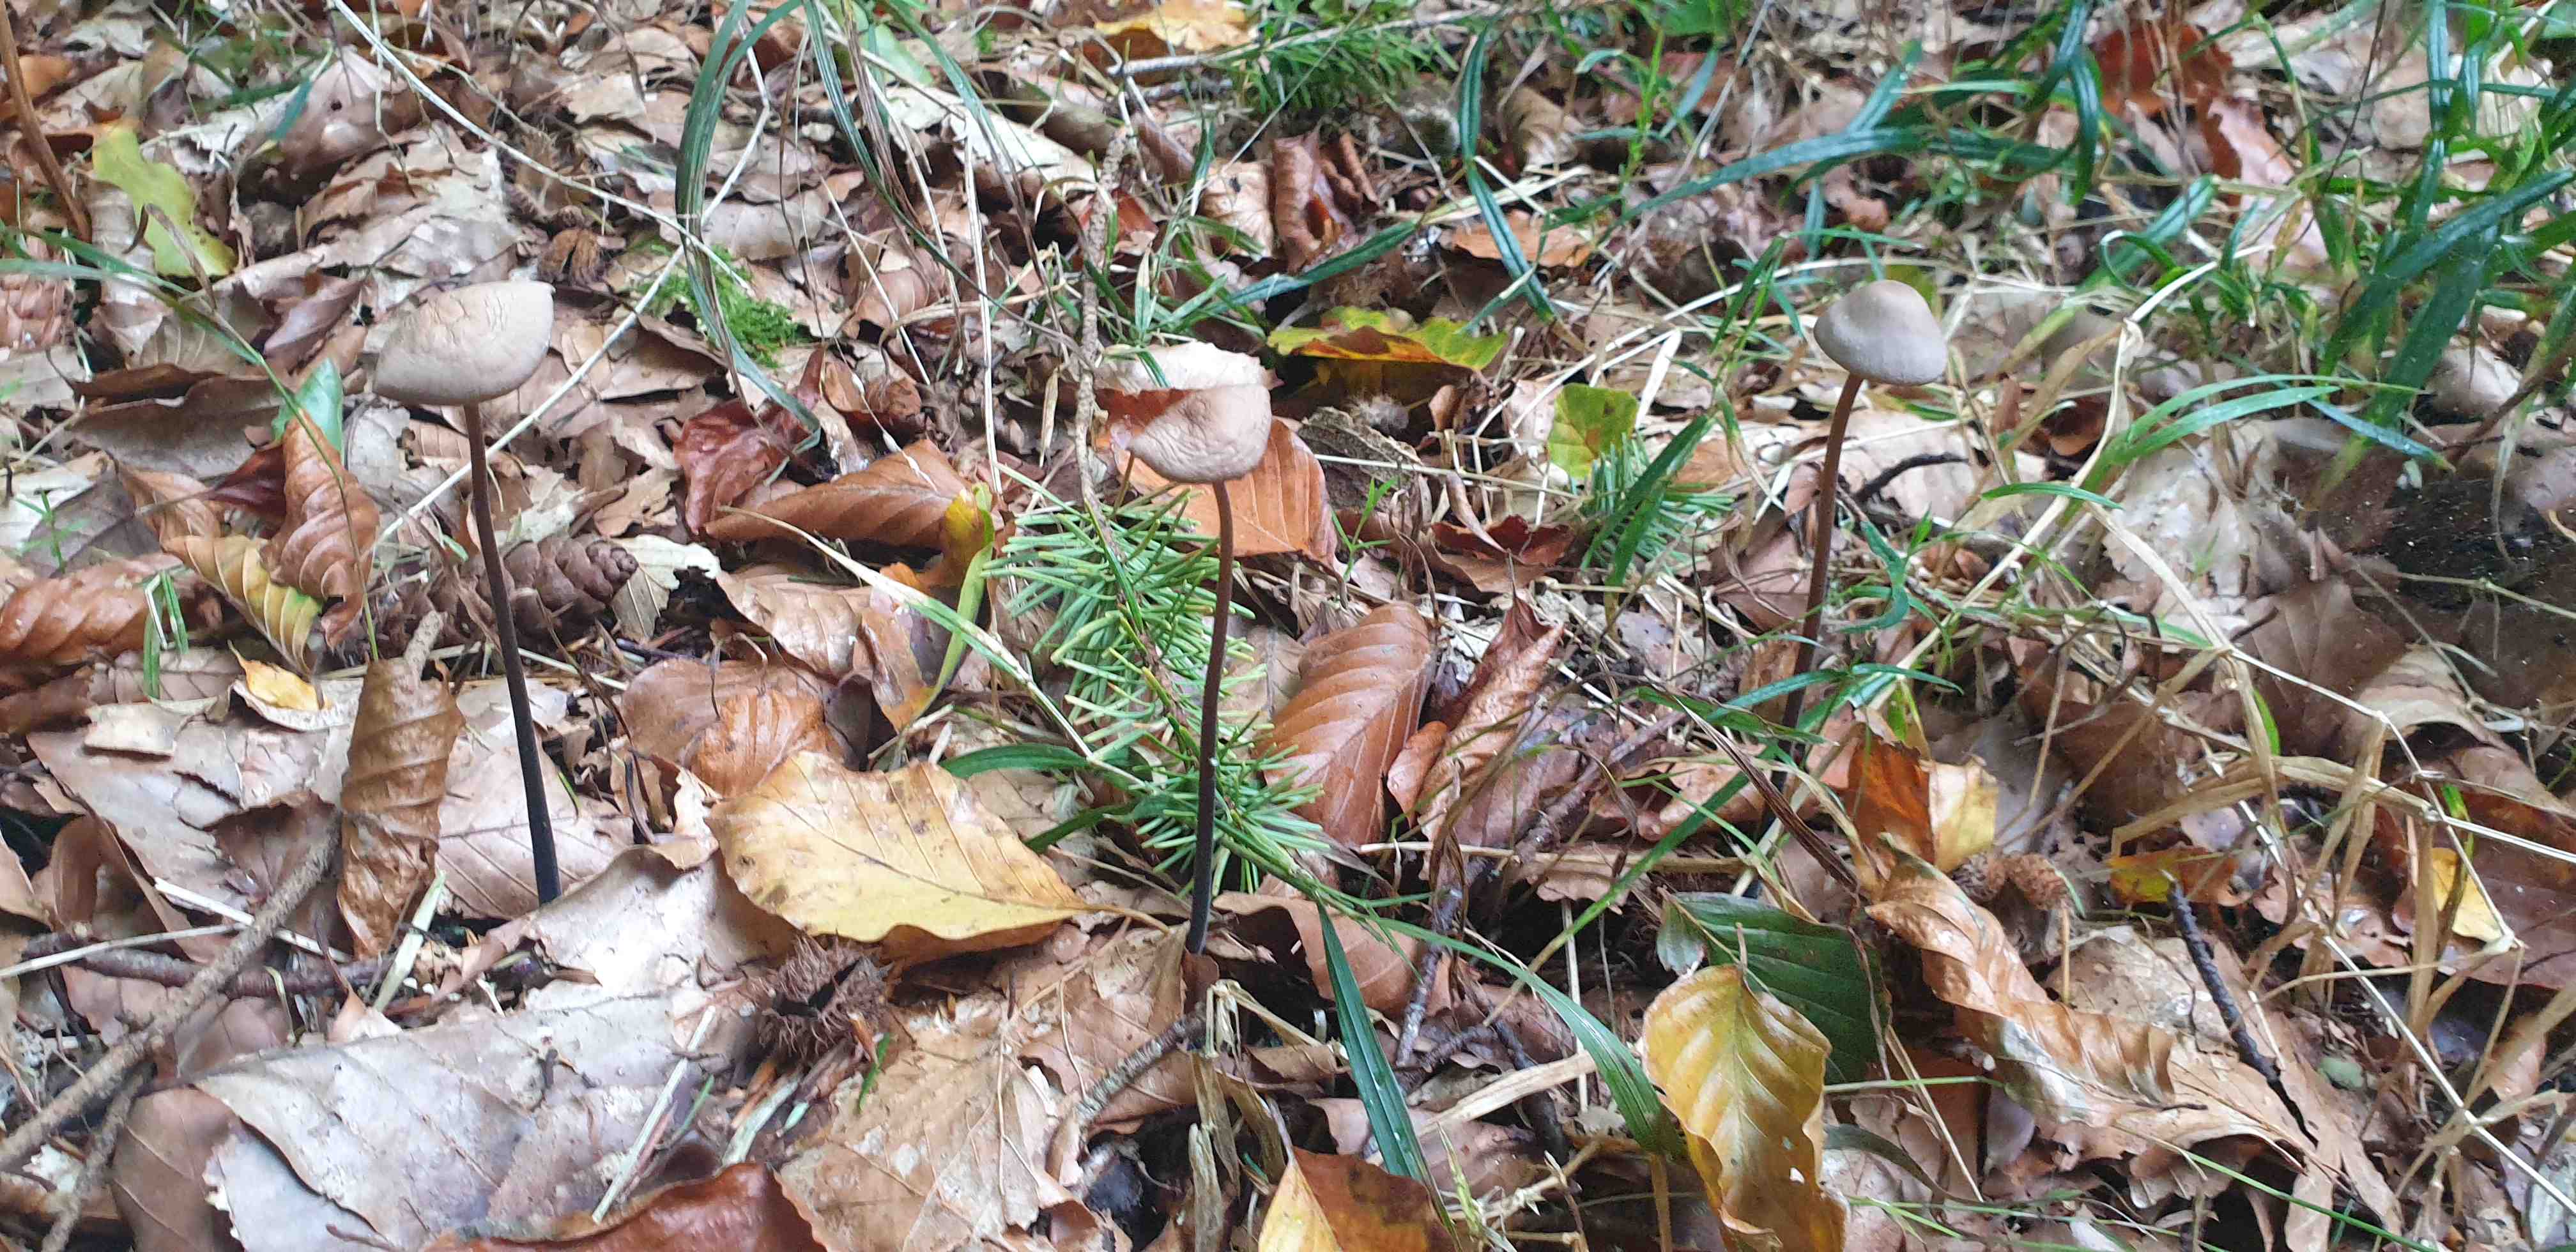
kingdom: Fungi
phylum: Basidiomycota
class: Agaricomycetes
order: Agaricales
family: Omphalotaceae
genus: Mycetinis
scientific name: Mycetinis alliaceus
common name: stor løghat
